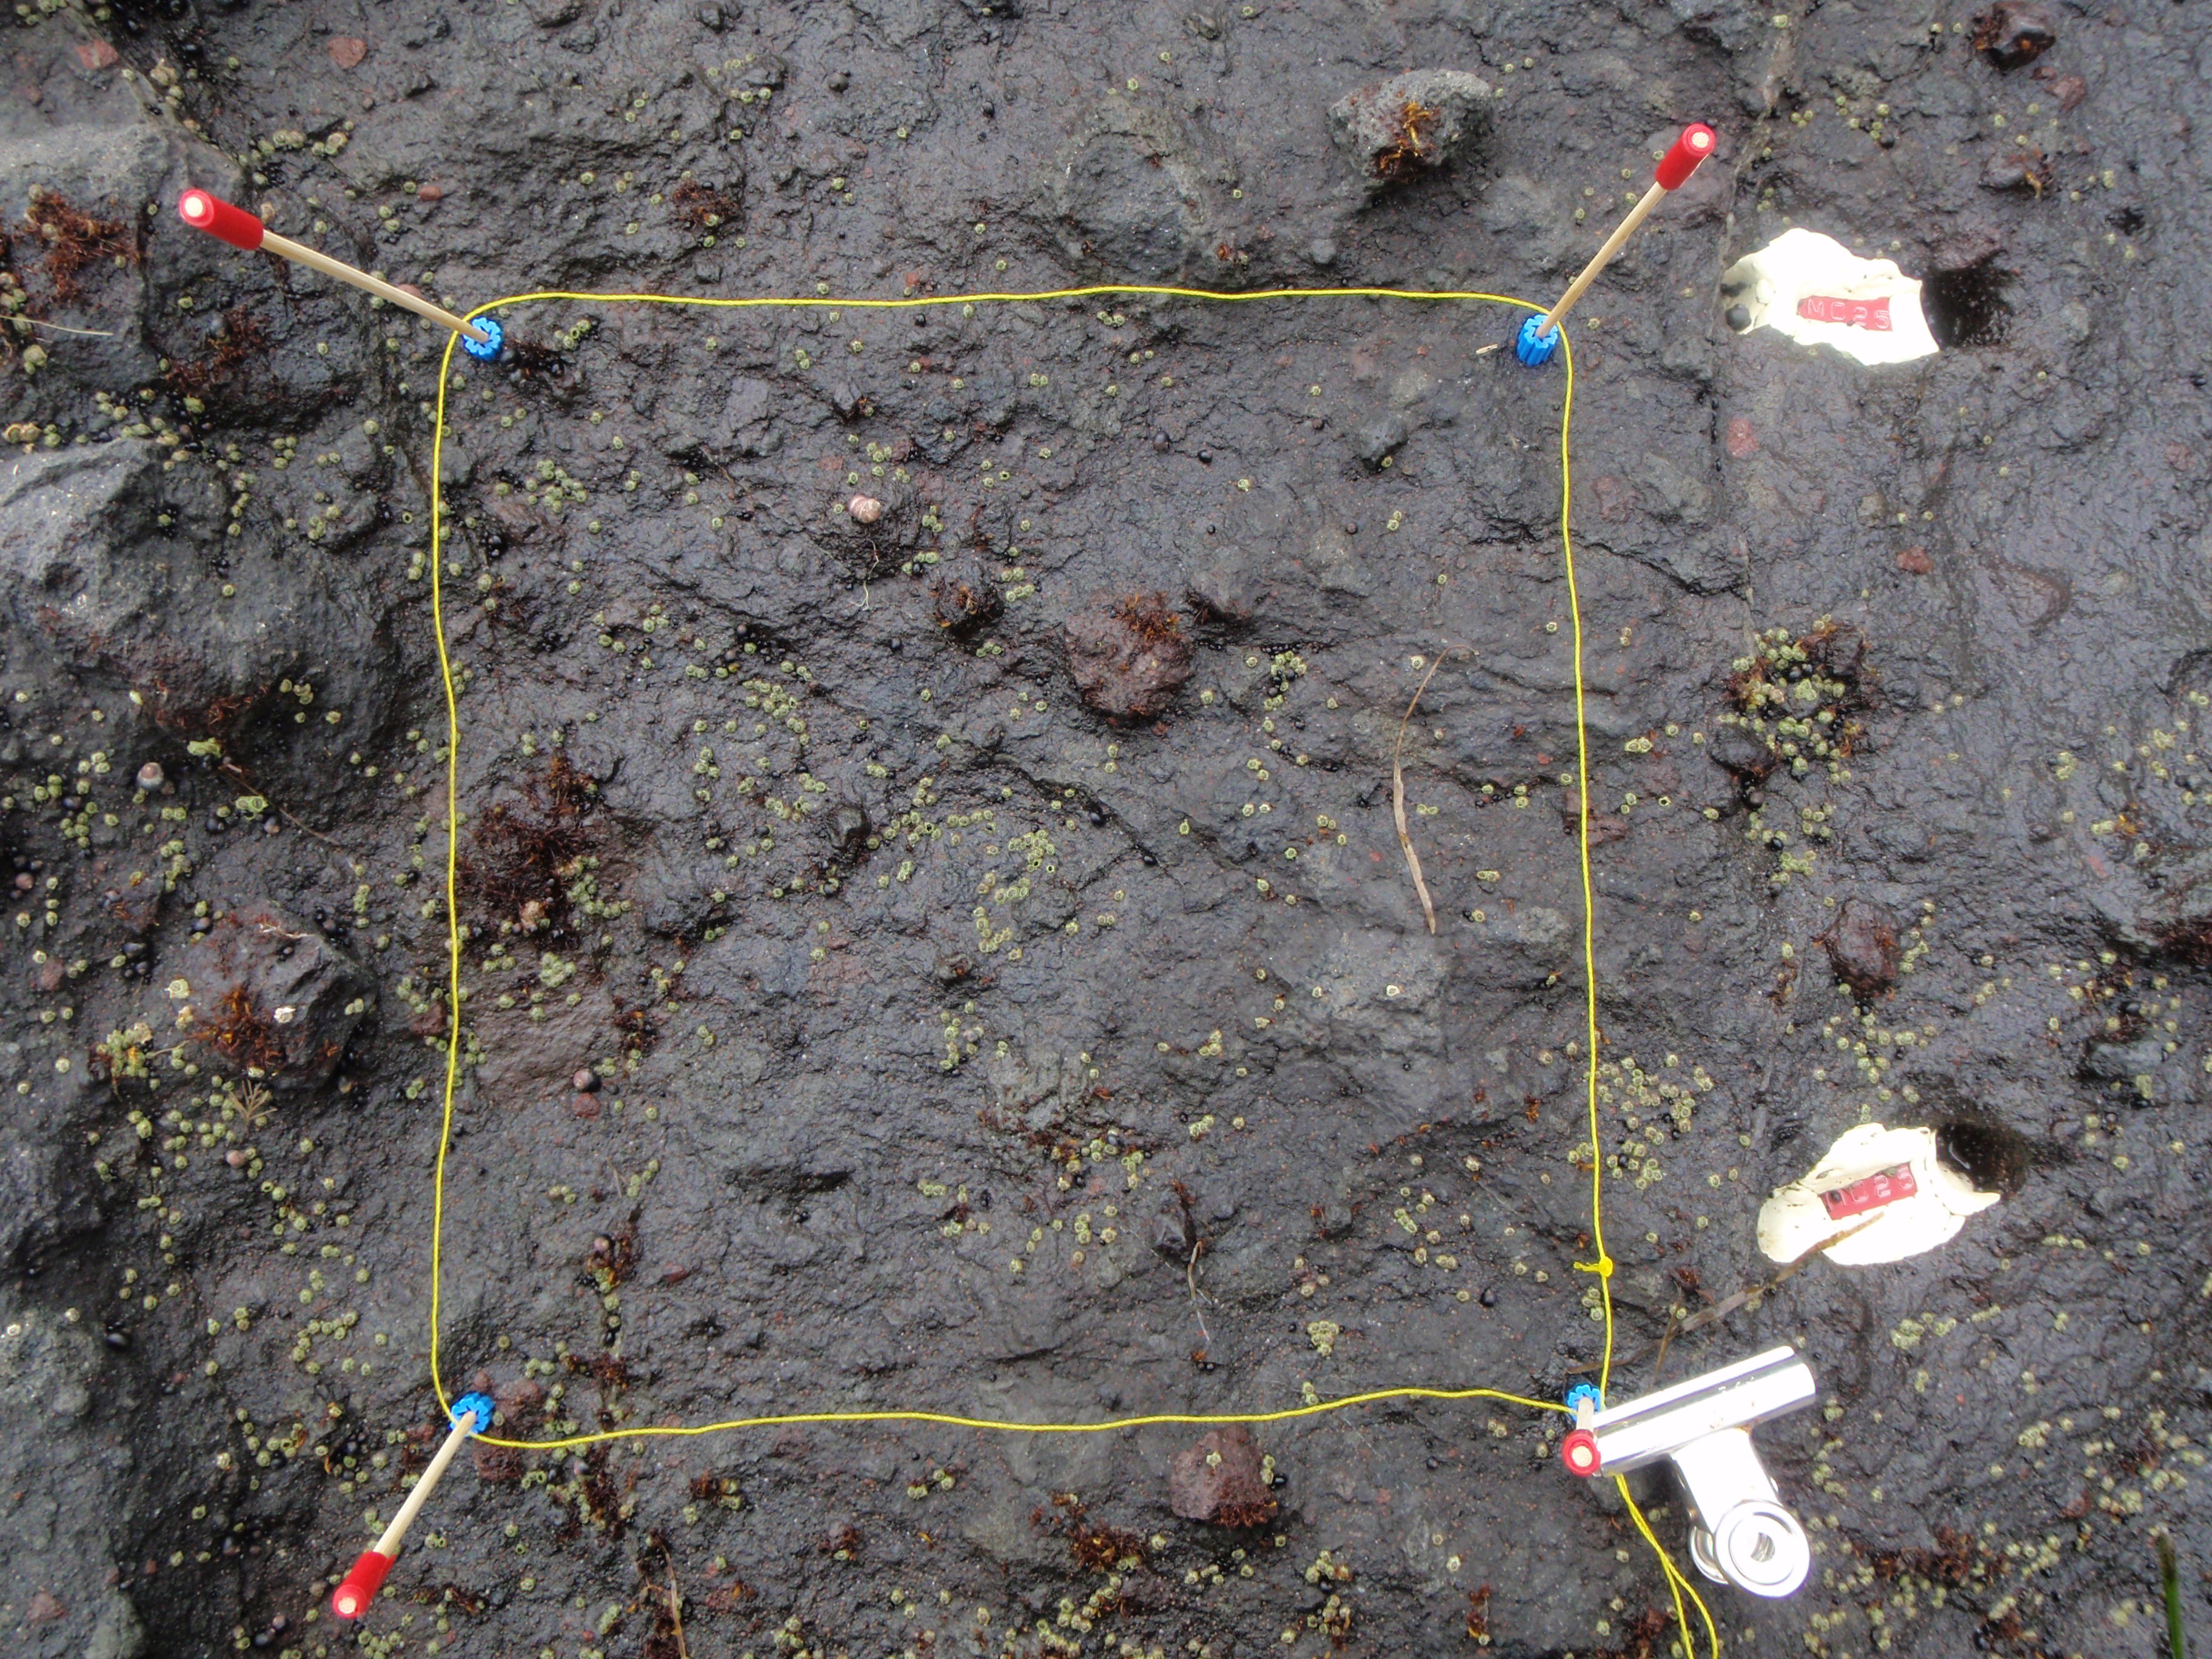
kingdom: Plantae
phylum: Rhodophyta
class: Florideophyceae
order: Gigartinales
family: Endocladiaceae
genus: Gloiopeltis
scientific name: Gloiopeltis furcata
